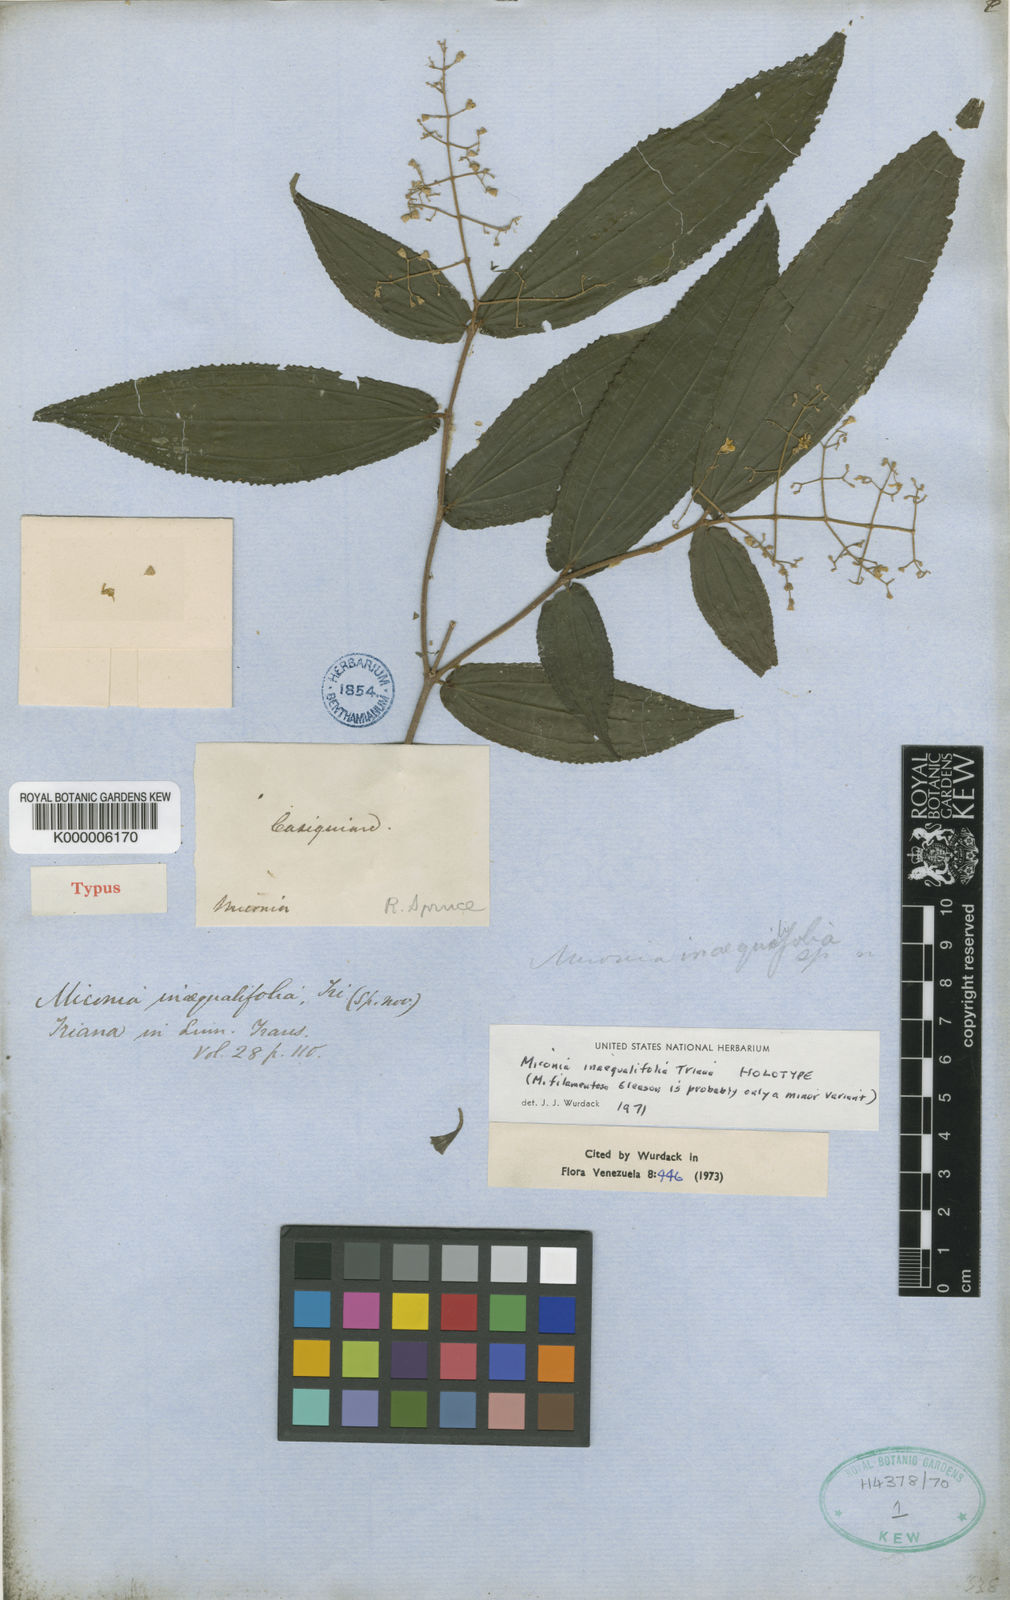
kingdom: Plantae
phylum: Tracheophyta
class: Magnoliopsida
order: Myrtales
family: Melastomataceae
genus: Miconia
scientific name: Miconia inaequalifolia
